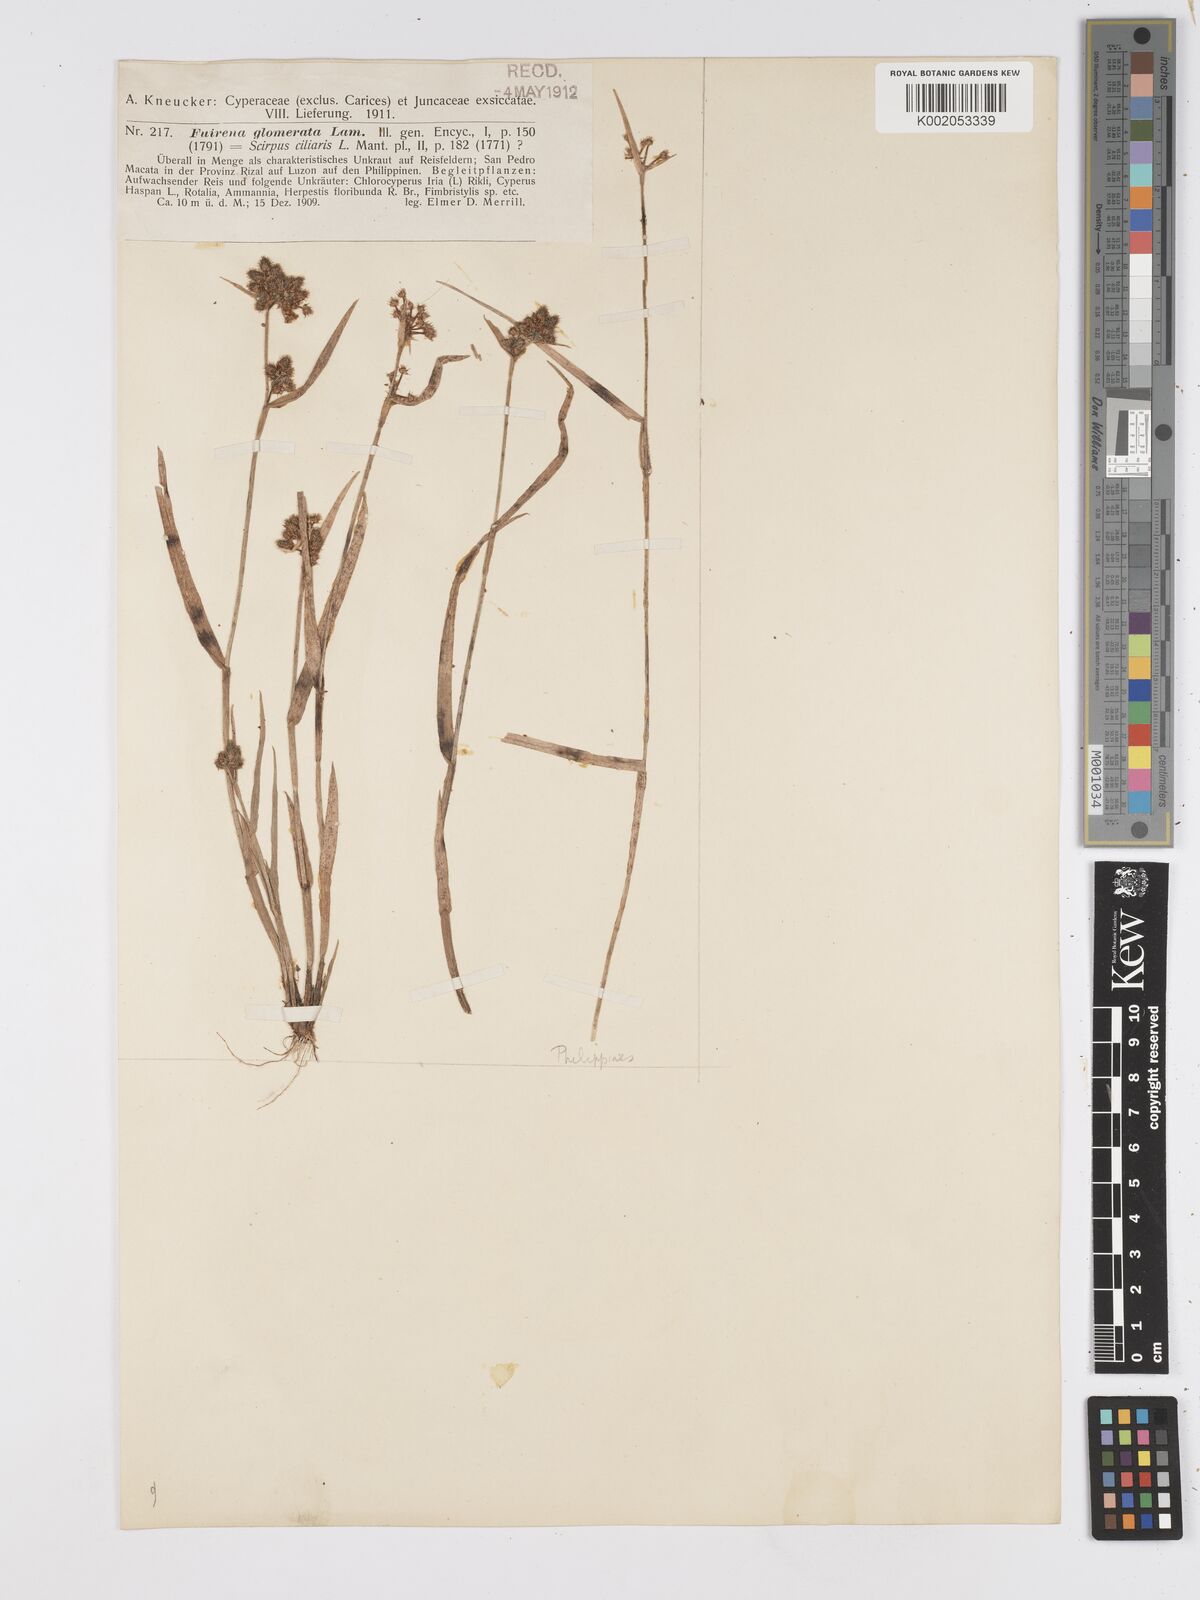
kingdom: Plantae
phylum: Tracheophyta
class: Liliopsida
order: Poales
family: Cyperaceae
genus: Fuirena
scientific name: Fuirena ciliaris
